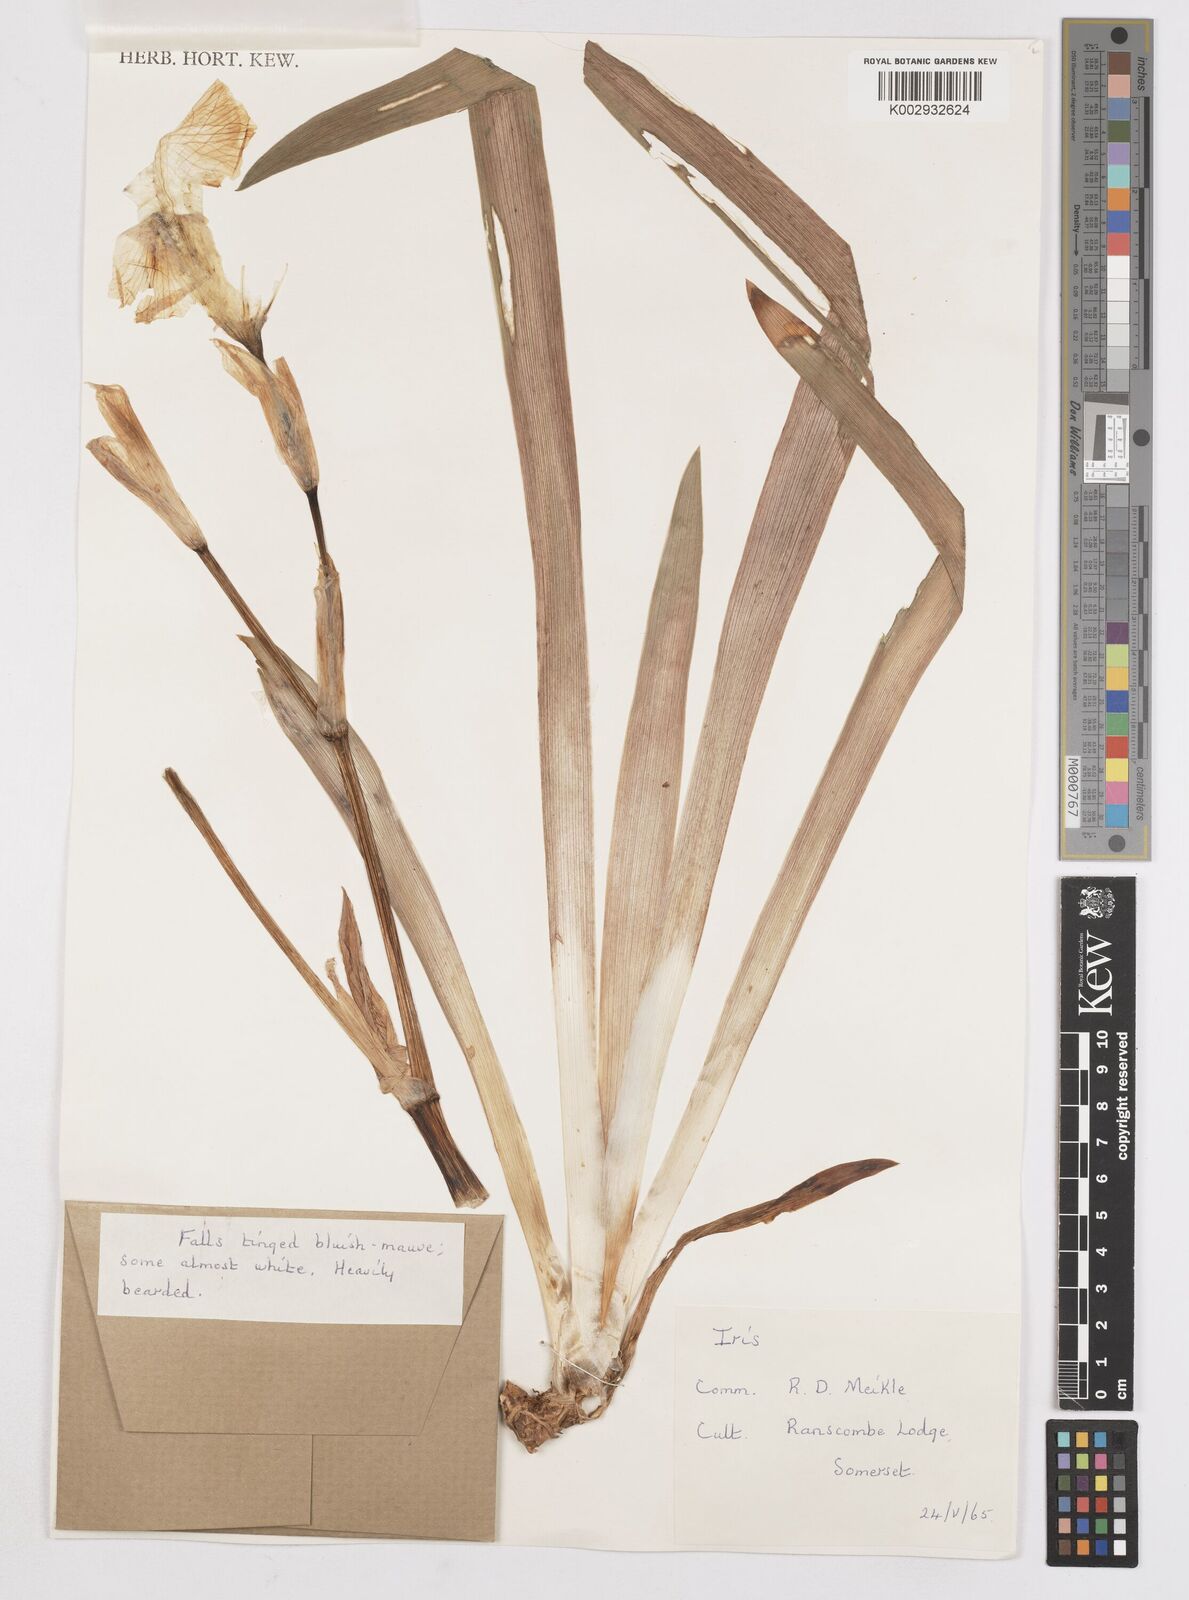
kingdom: Plantae
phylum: Tracheophyta
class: Liliopsida
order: Asparagales
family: Iridaceae
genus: Iris
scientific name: Iris
